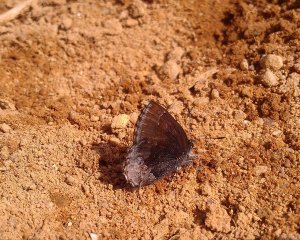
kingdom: Animalia
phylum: Arthropoda
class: Insecta
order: Lepidoptera
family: Lycaenidae
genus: Callophrys
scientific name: Callophrys polios
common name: Hoary Elfin
